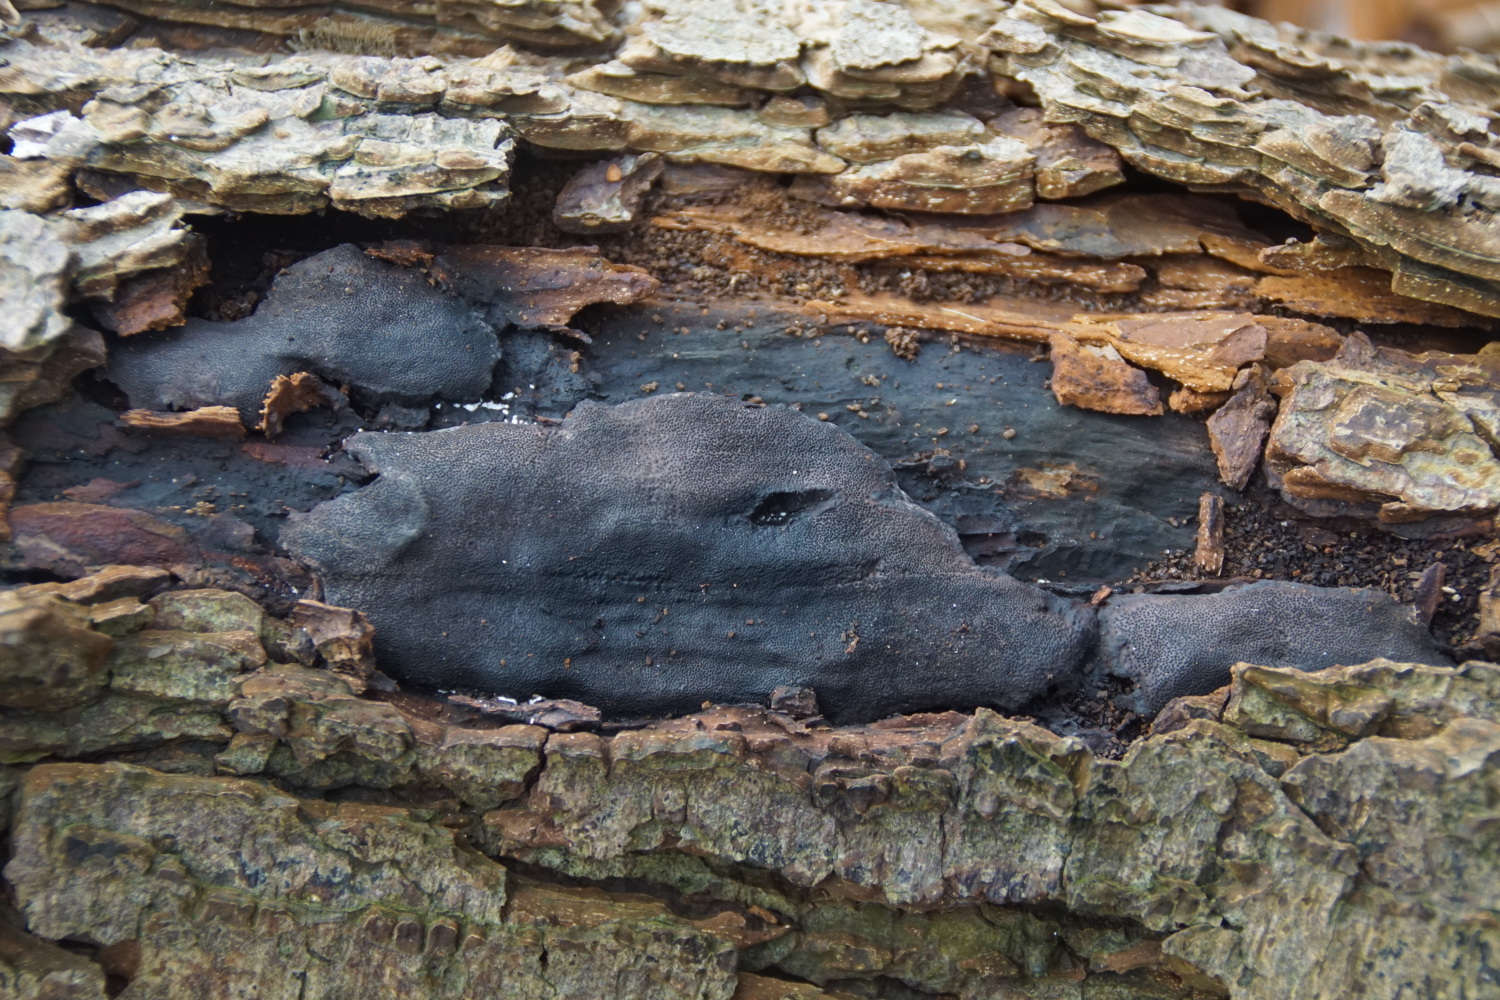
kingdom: Fungi
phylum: Ascomycota
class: Sordariomycetes
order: Boliniales
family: Boliniaceae
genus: Camarops
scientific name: Camarops polysperma
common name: elle-kulsnegl
